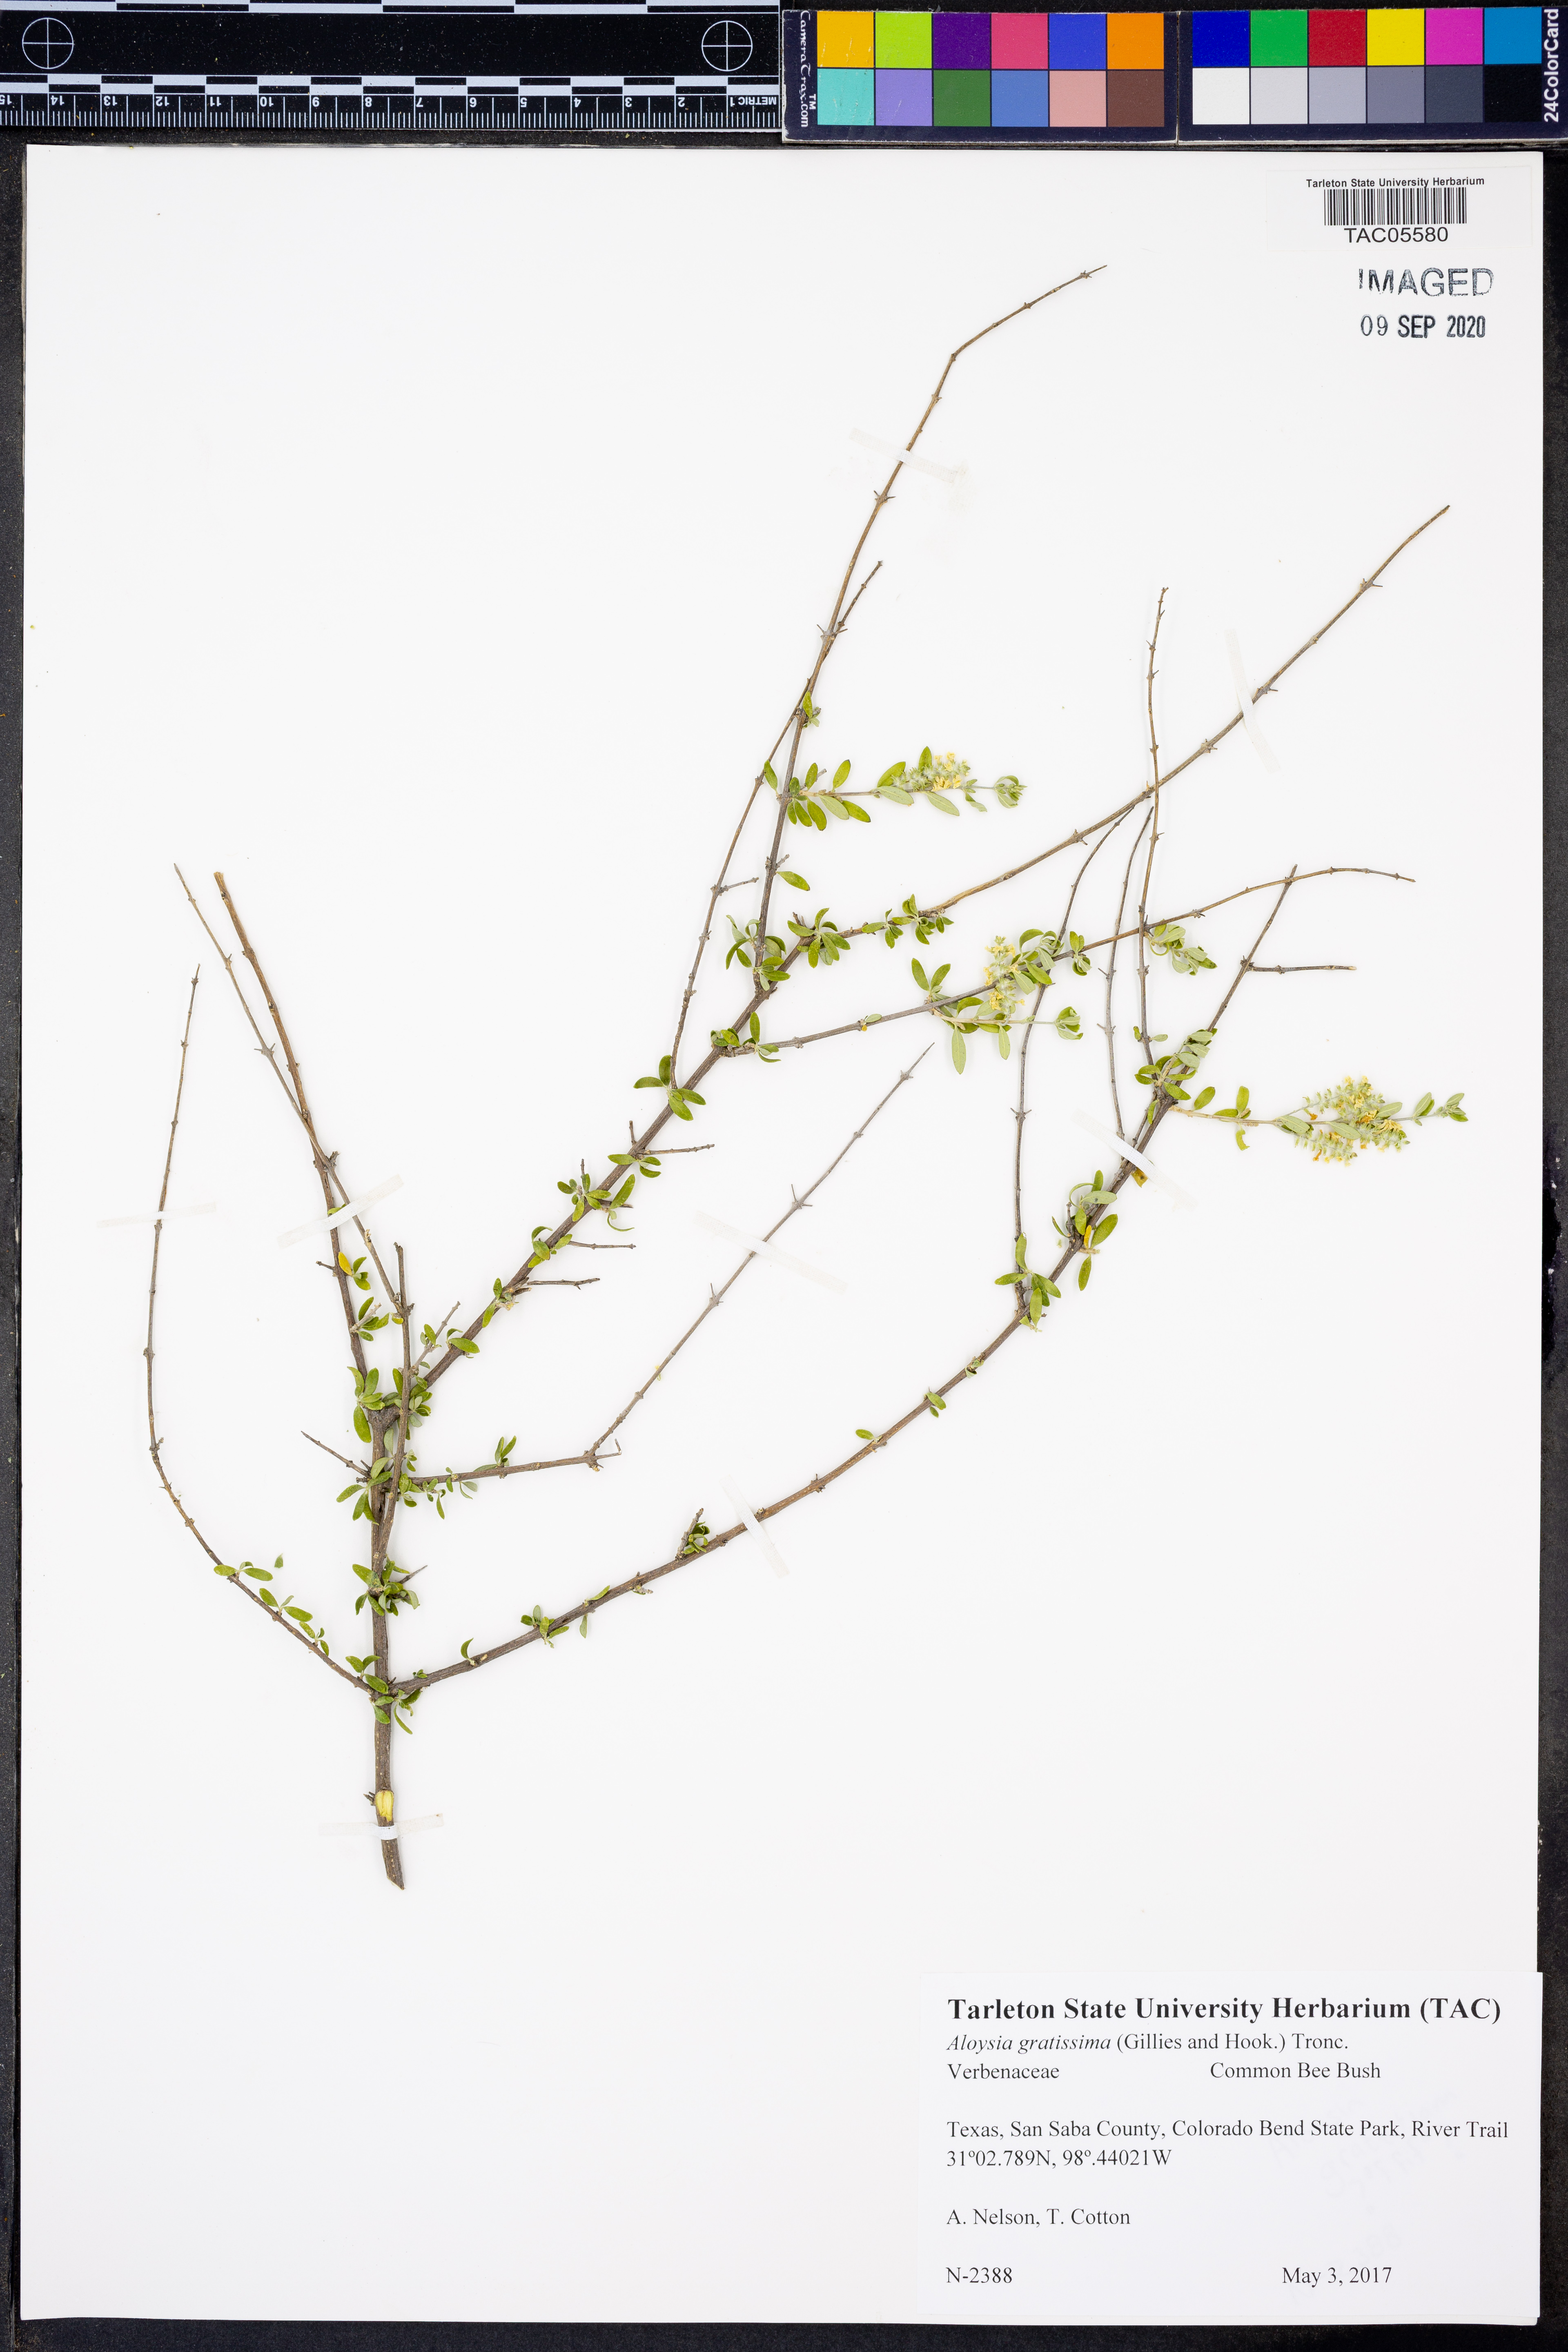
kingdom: Plantae
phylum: Tracheophyta
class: Magnoliopsida
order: Lamiales
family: Verbenaceae
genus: Aloysia
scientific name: Aloysia gratissima
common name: Common bee-brush
